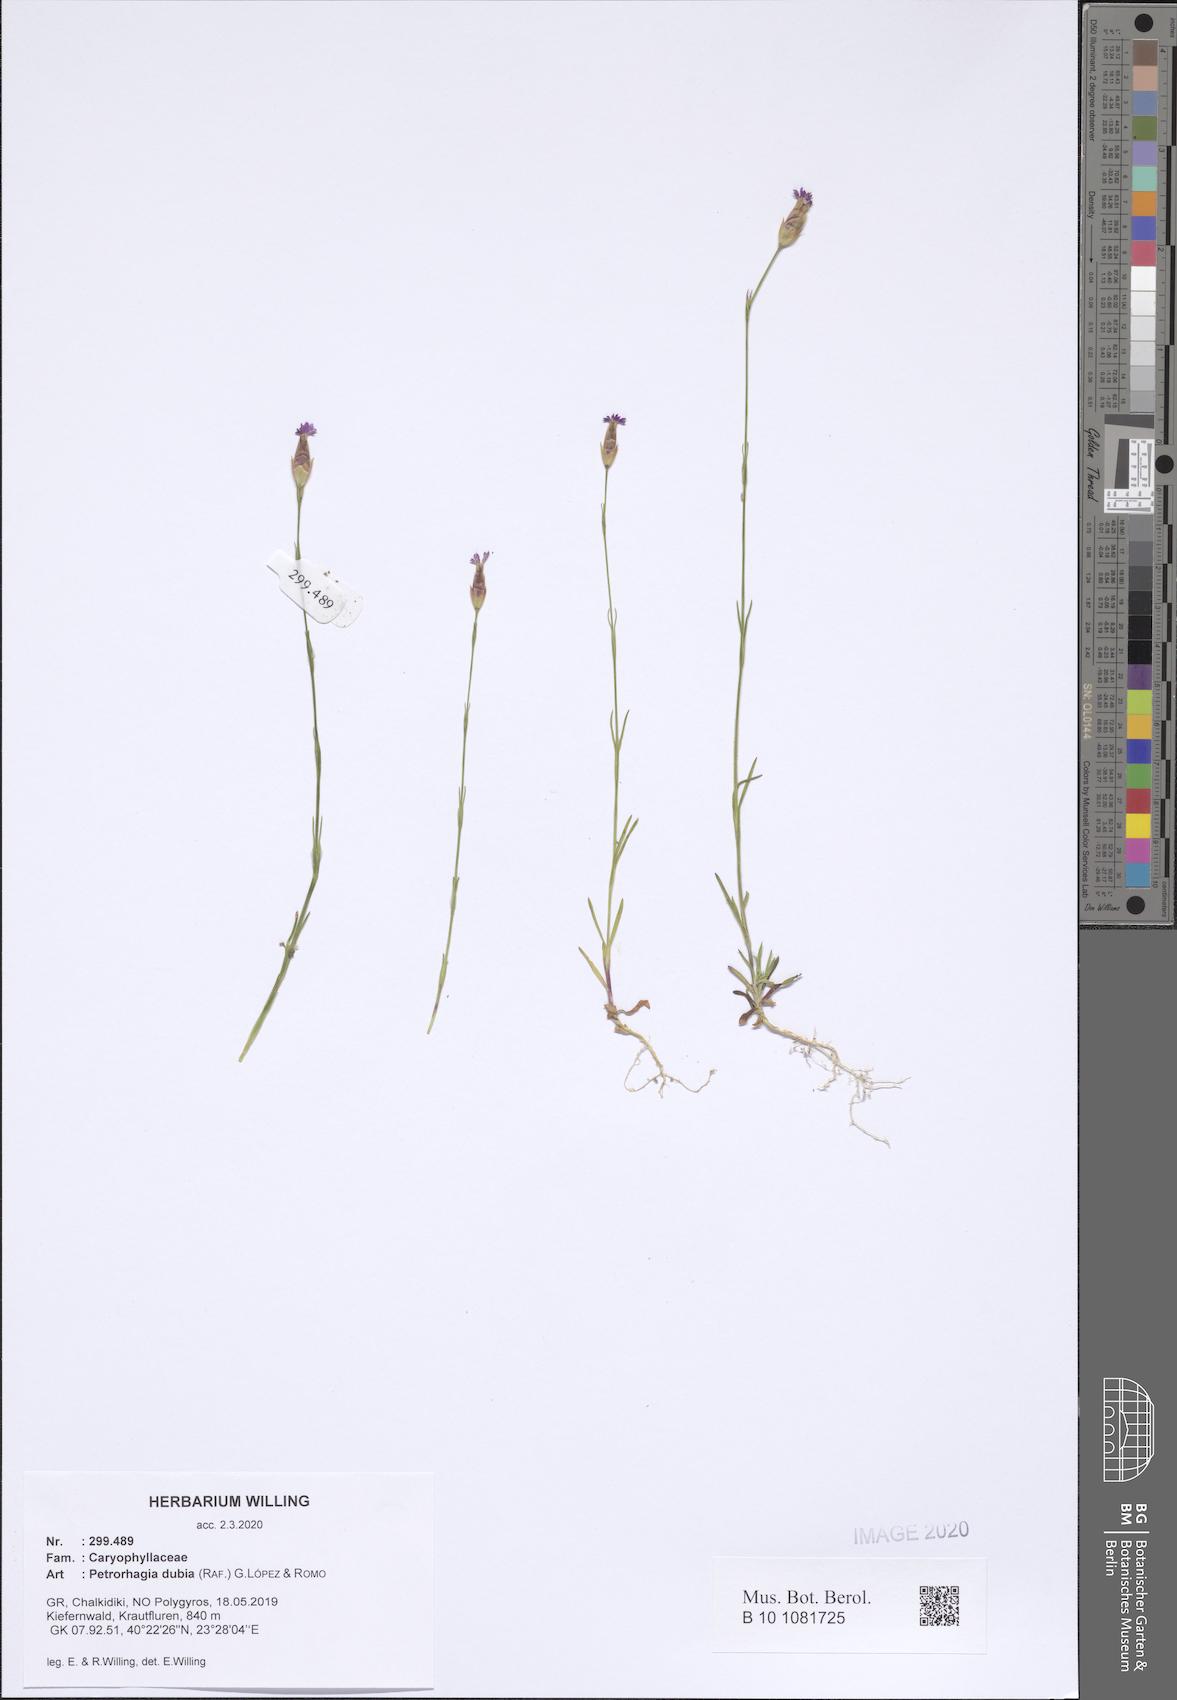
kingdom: Plantae
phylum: Tracheophyta
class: Magnoliopsida
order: Caryophyllales
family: Caryophyllaceae
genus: Petrorhagia
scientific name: Petrorhagia dubia
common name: Hairypink
